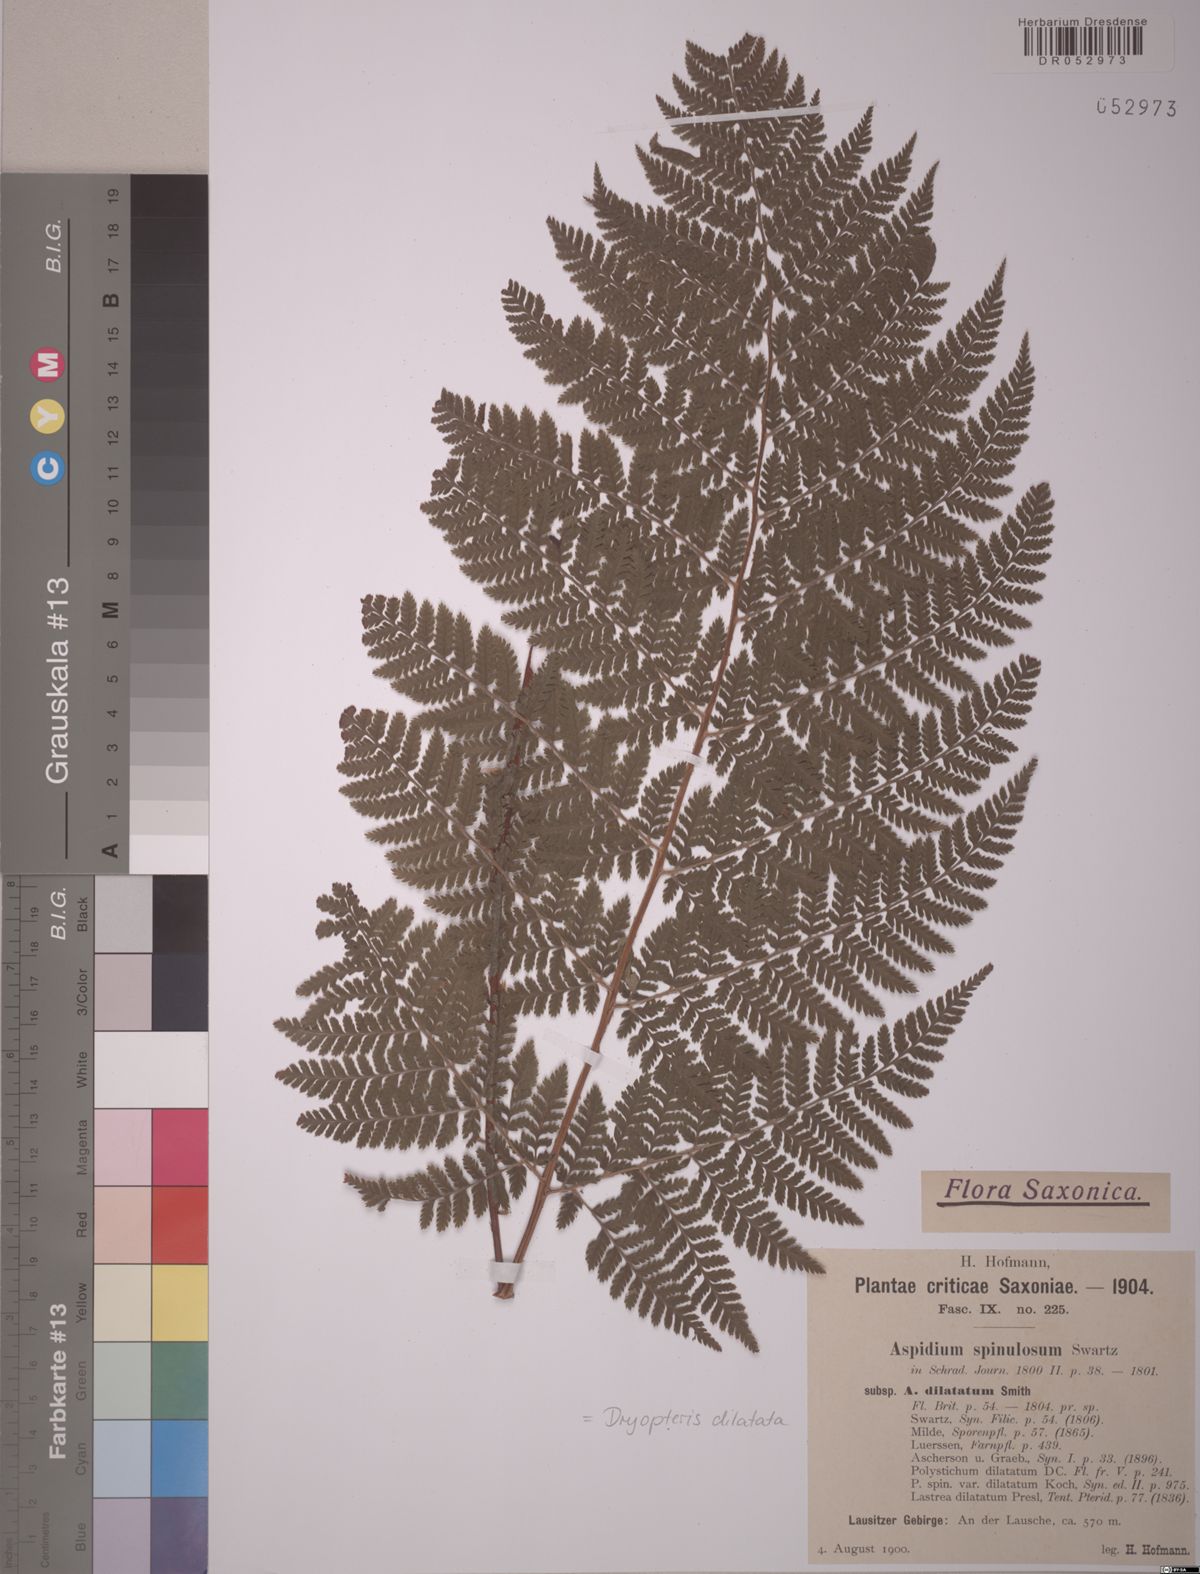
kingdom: Plantae
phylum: Tracheophyta
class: Polypodiopsida
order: Polypodiales
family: Dryopteridaceae
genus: Dryopteris
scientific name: Dryopteris dilatata
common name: Broad buckler-fern
